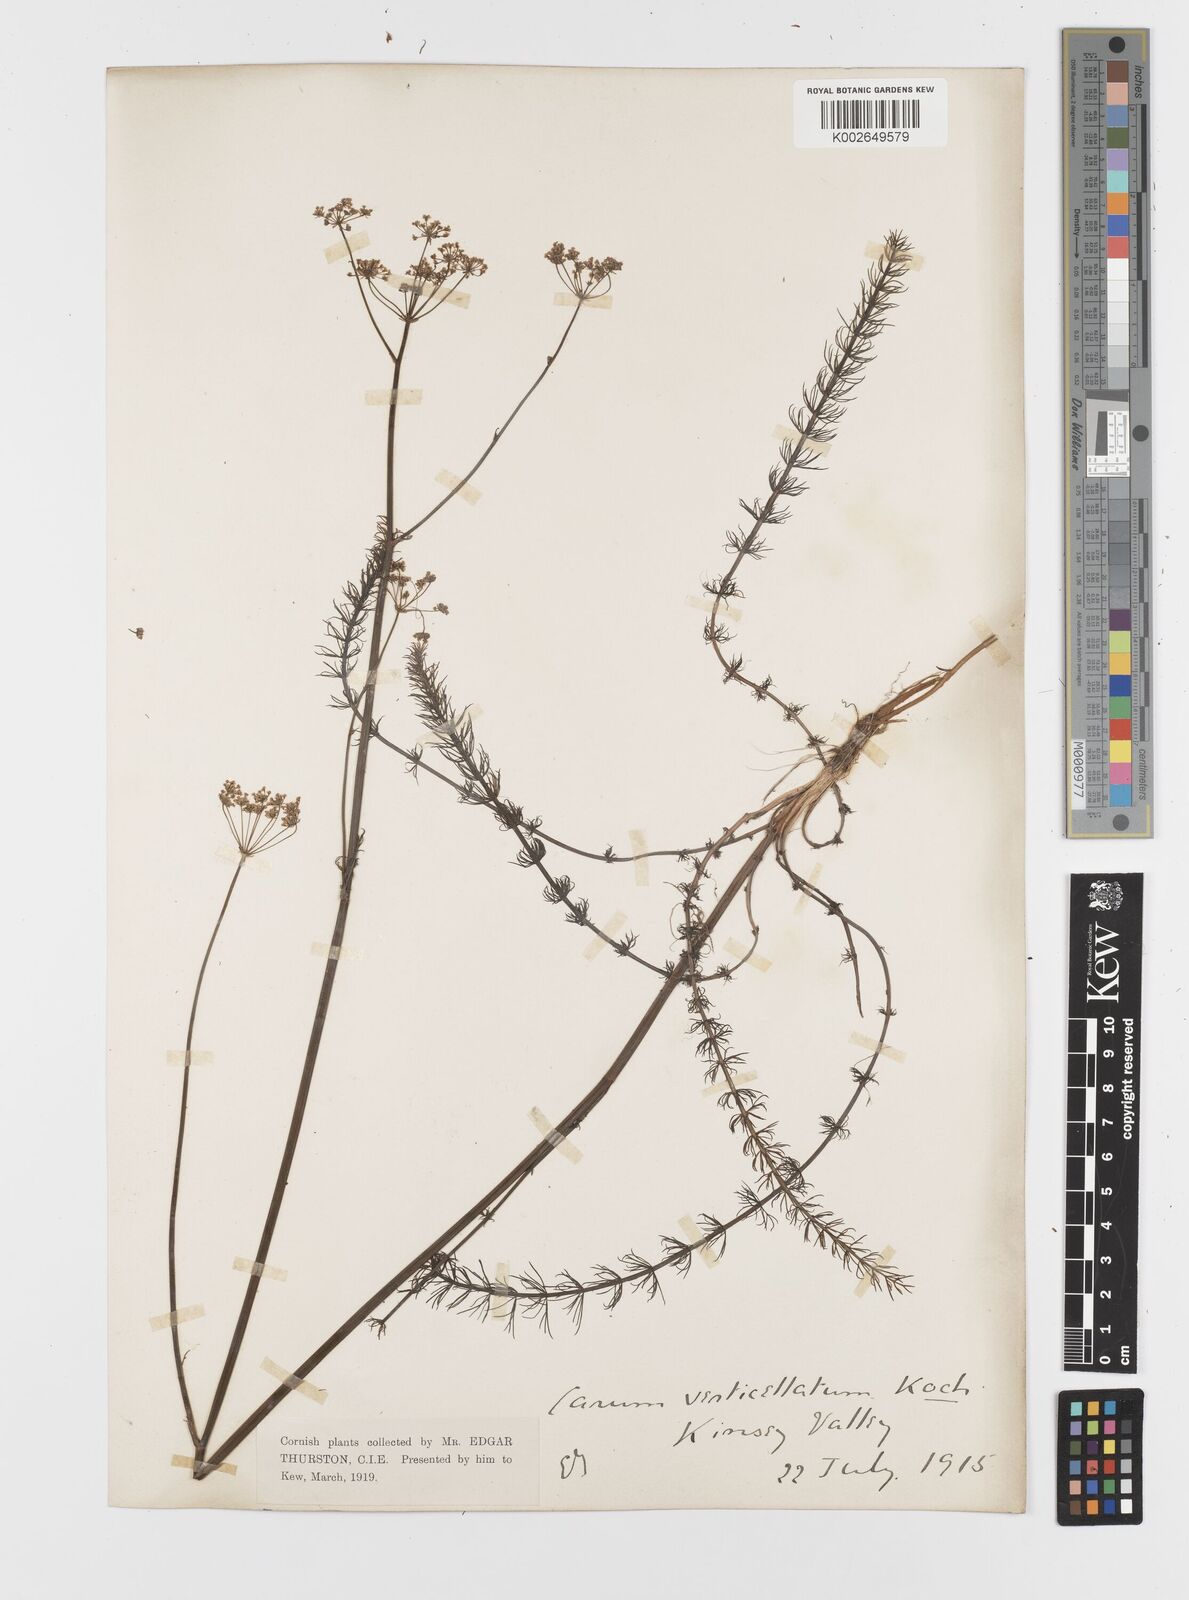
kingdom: Plantae
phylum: Tracheophyta
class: Magnoliopsida
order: Apiales
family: Apiaceae
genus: Trocdaris
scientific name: Trocdaris verticillatum
